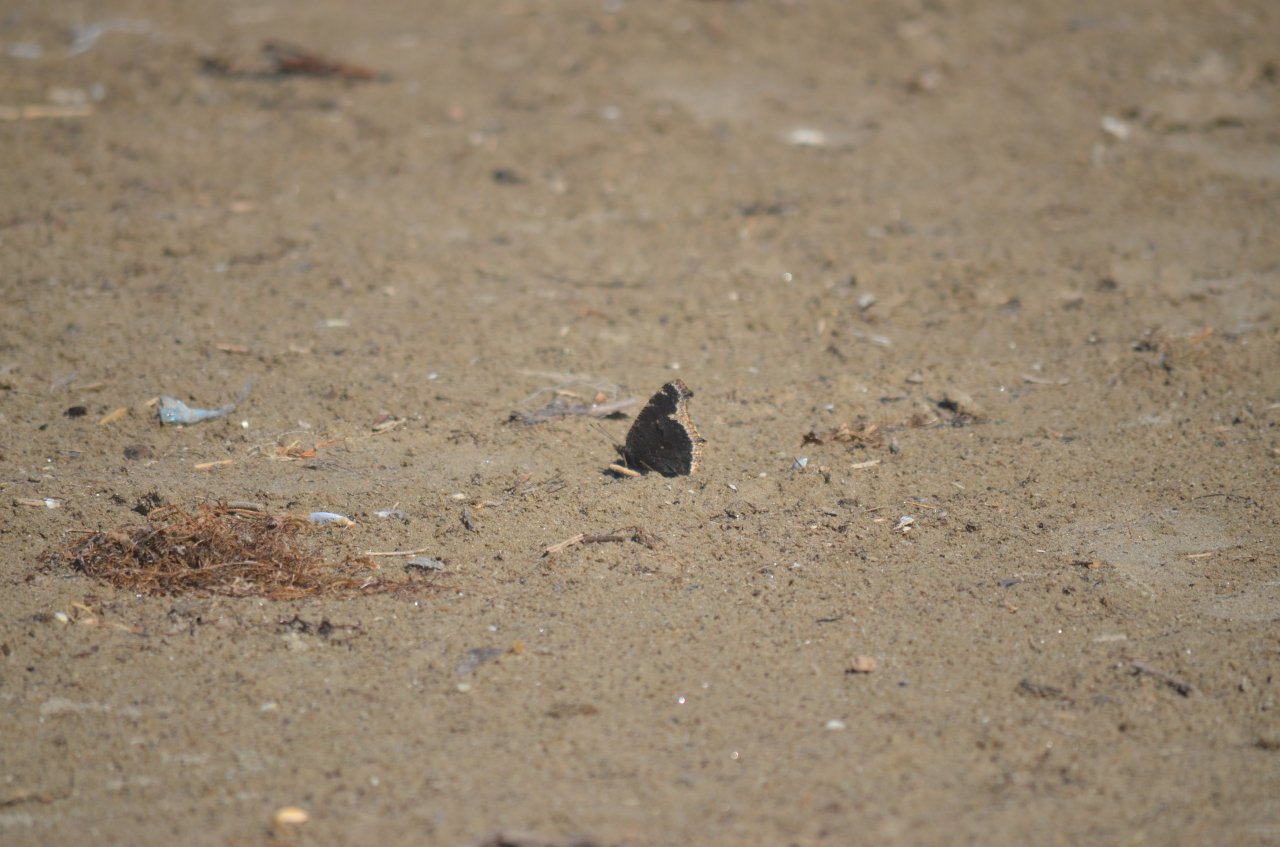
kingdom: Animalia
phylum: Arthropoda
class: Insecta
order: Lepidoptera
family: Nymphalidae
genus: Nymphalis
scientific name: Nymphalis antiopa
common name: Mourning Cloak
